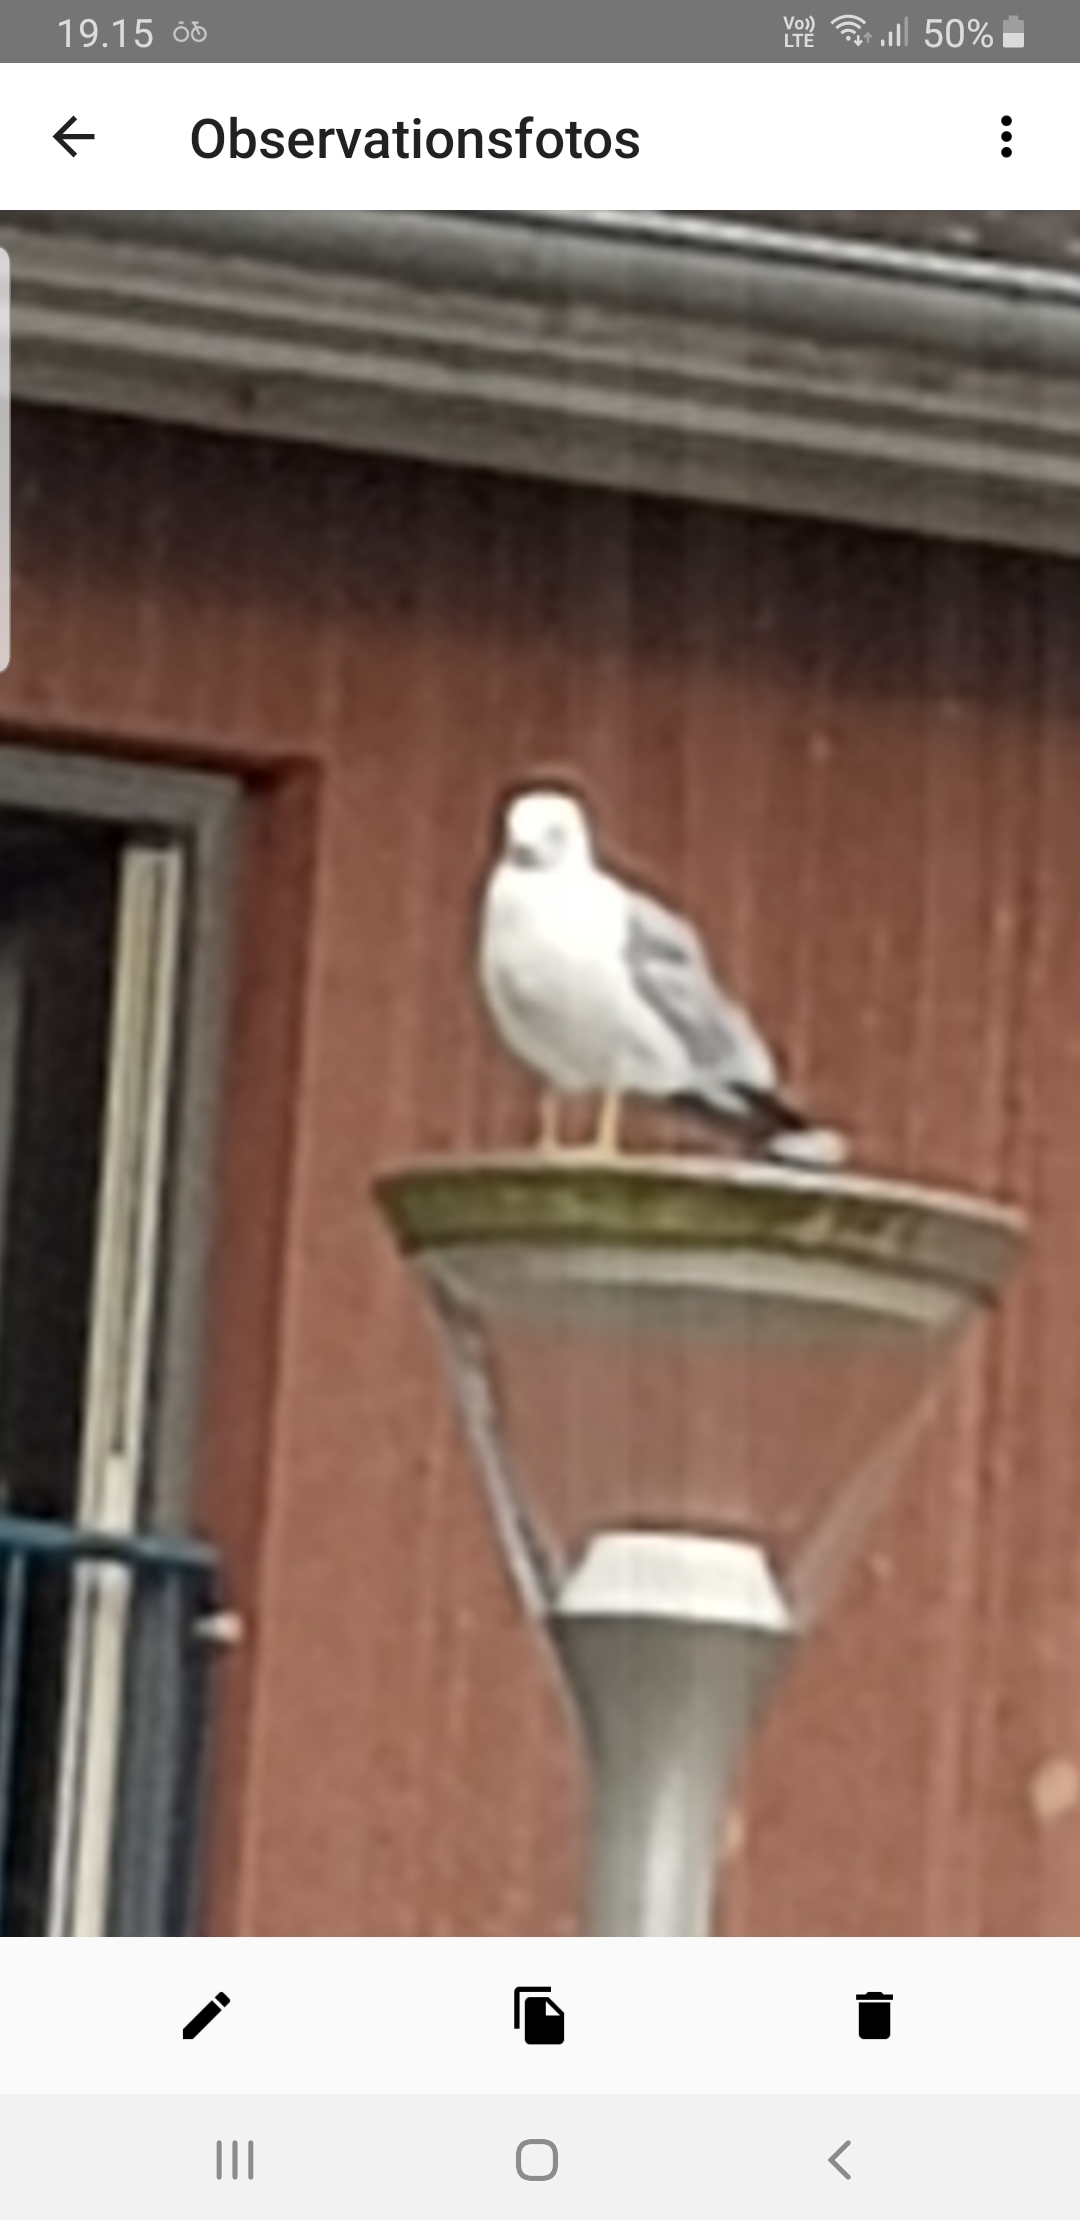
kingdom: Animalia
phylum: Chordata
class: Aves
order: Charadriiformes
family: Laridae
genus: Larus
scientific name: Larus canus
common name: Stormmåge
